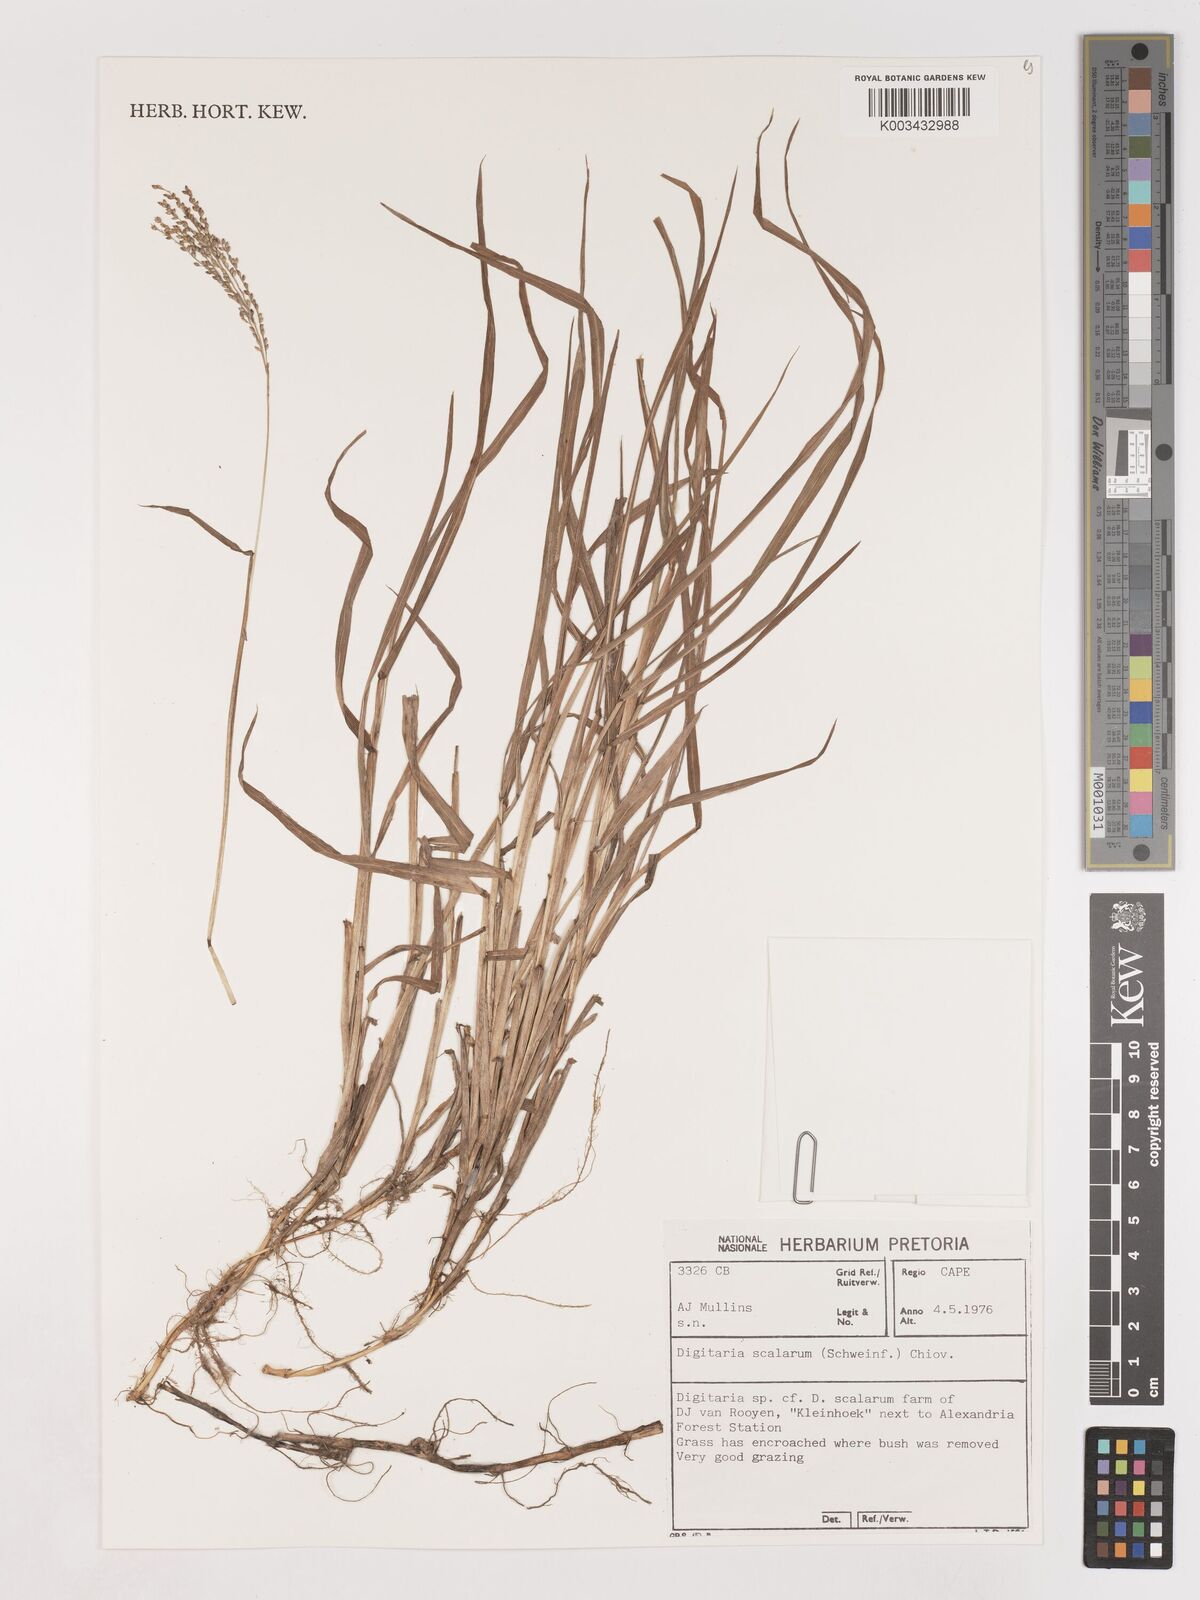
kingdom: Plantae
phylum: Tracheophyta
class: Liliopsida
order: Poales
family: Poaceae
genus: Digitaria
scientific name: Digitaria abyssinica
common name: African couchgrass
